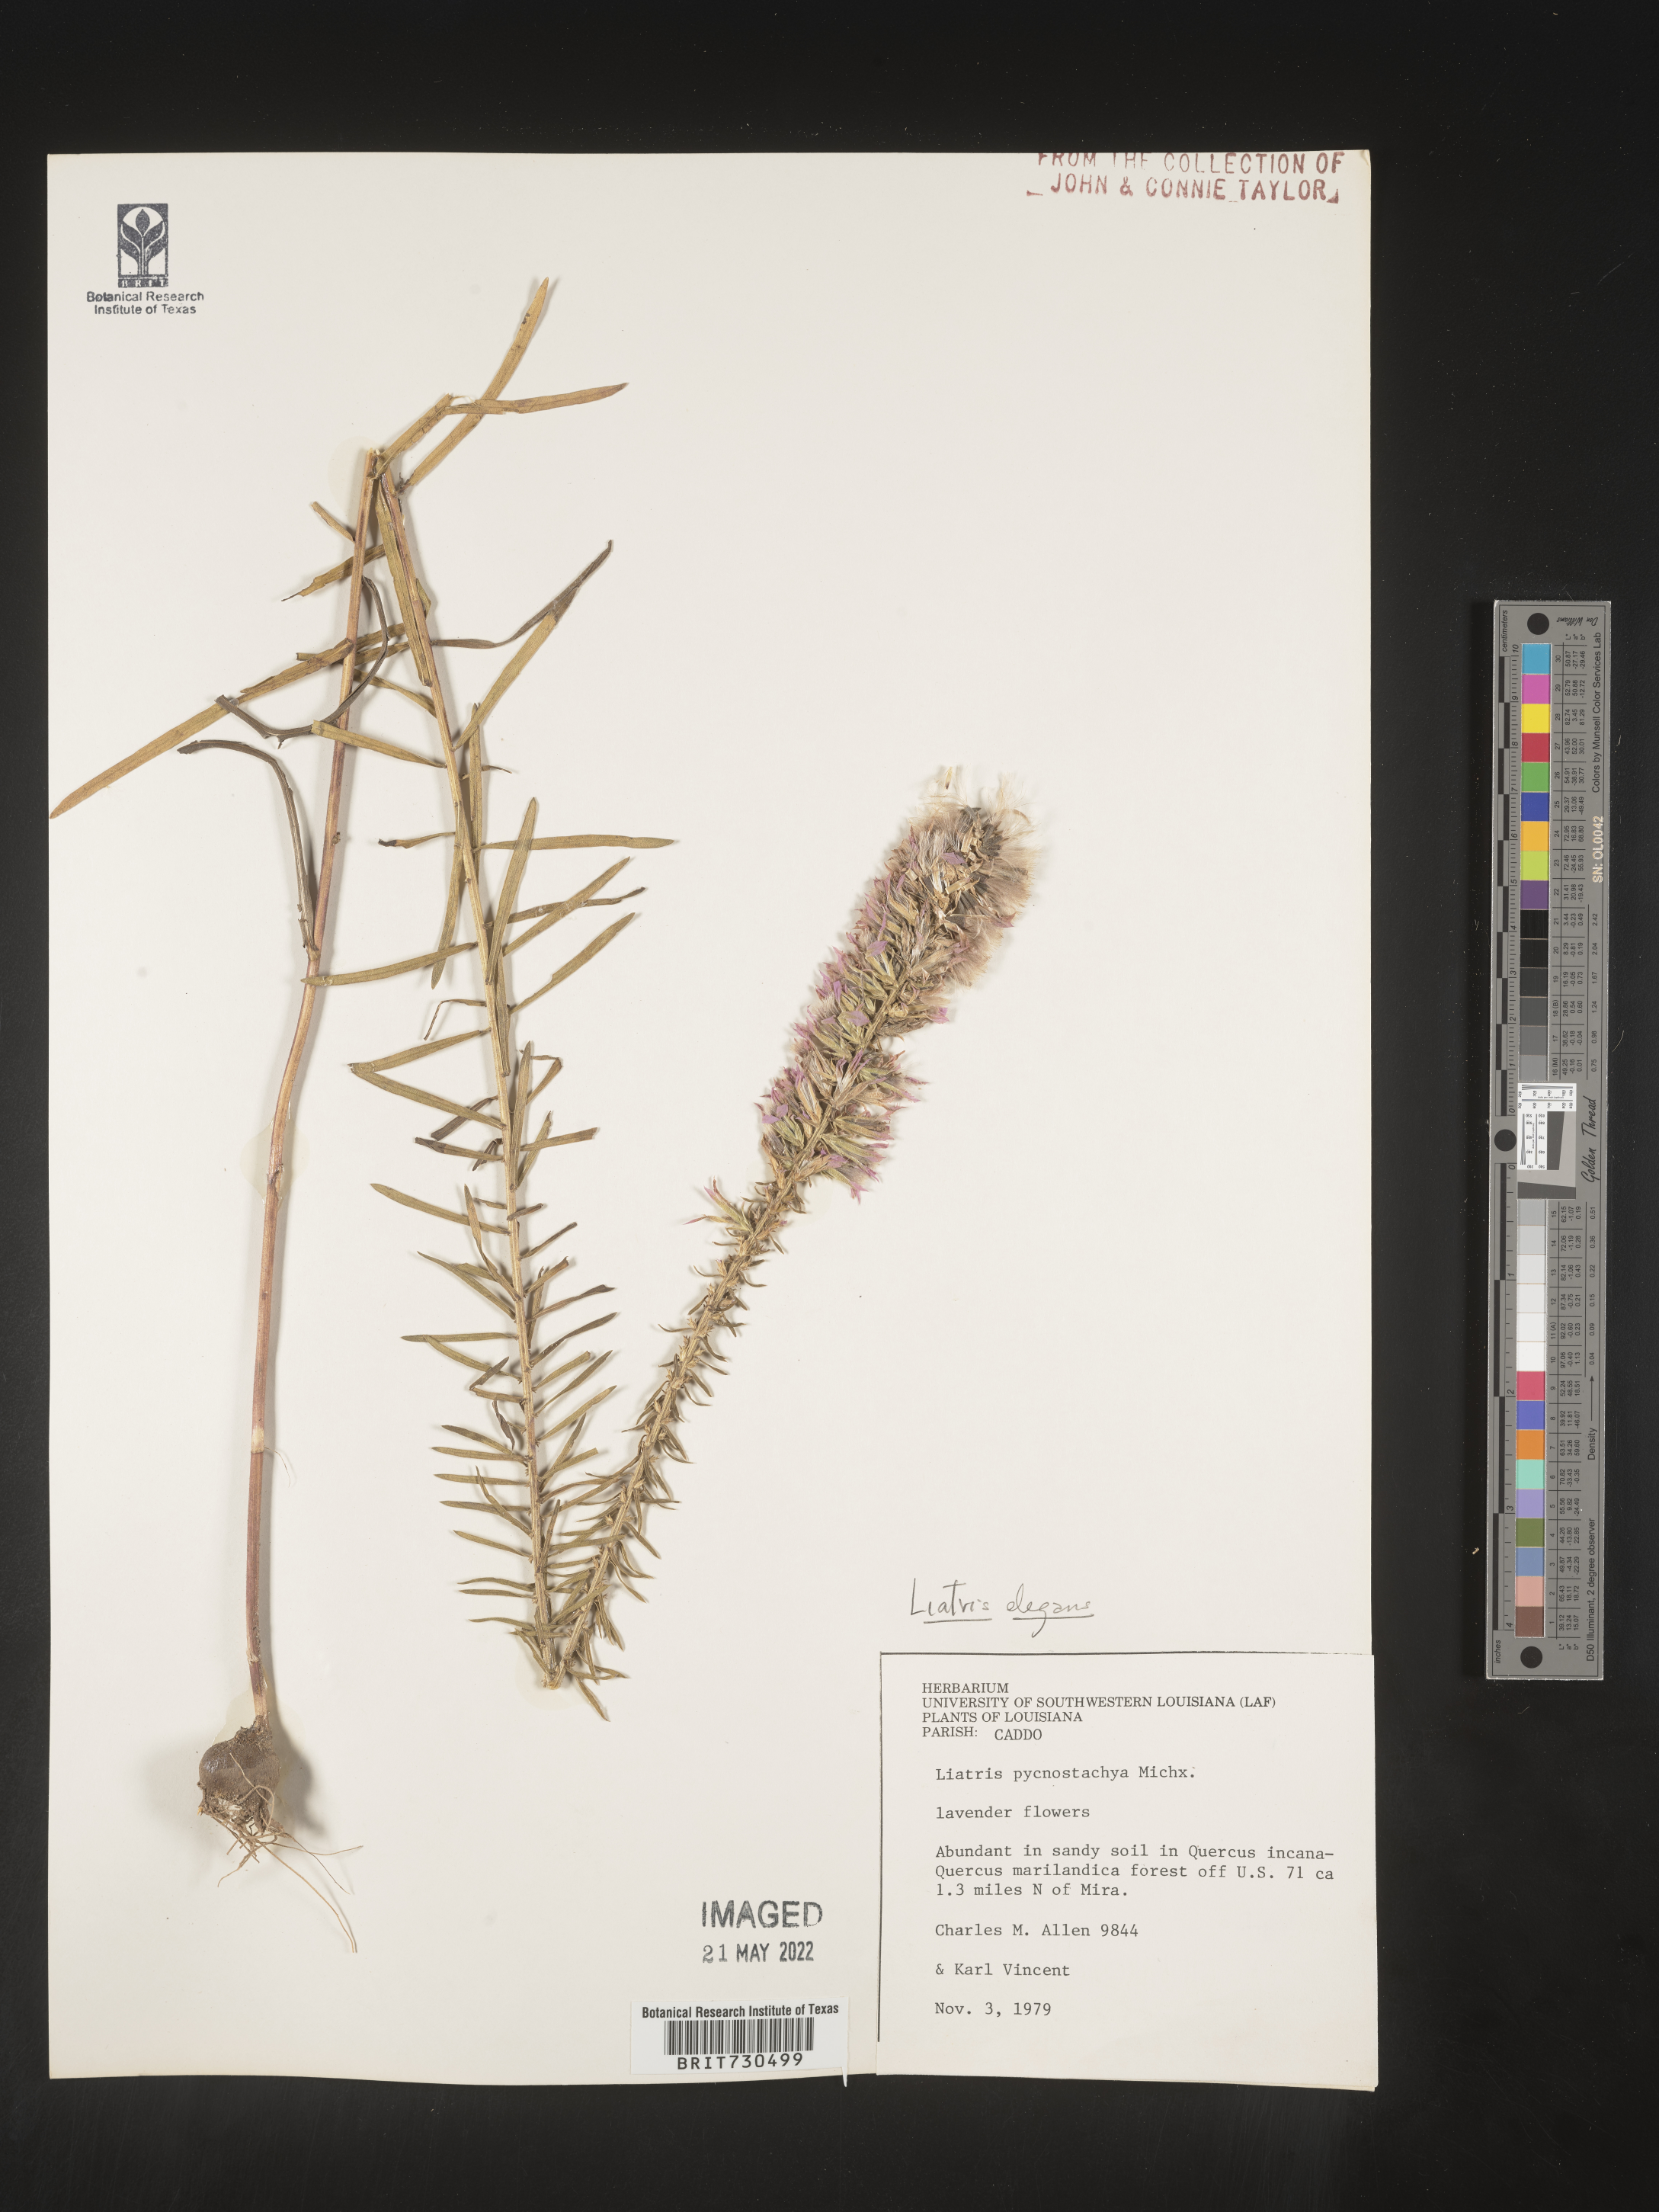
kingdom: Plantae
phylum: Tracheophyta
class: Magnoliopsida
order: Asterales
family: Asteraceae
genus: Liatris
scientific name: Liatris elegans
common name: Pinkscale gayfeather
